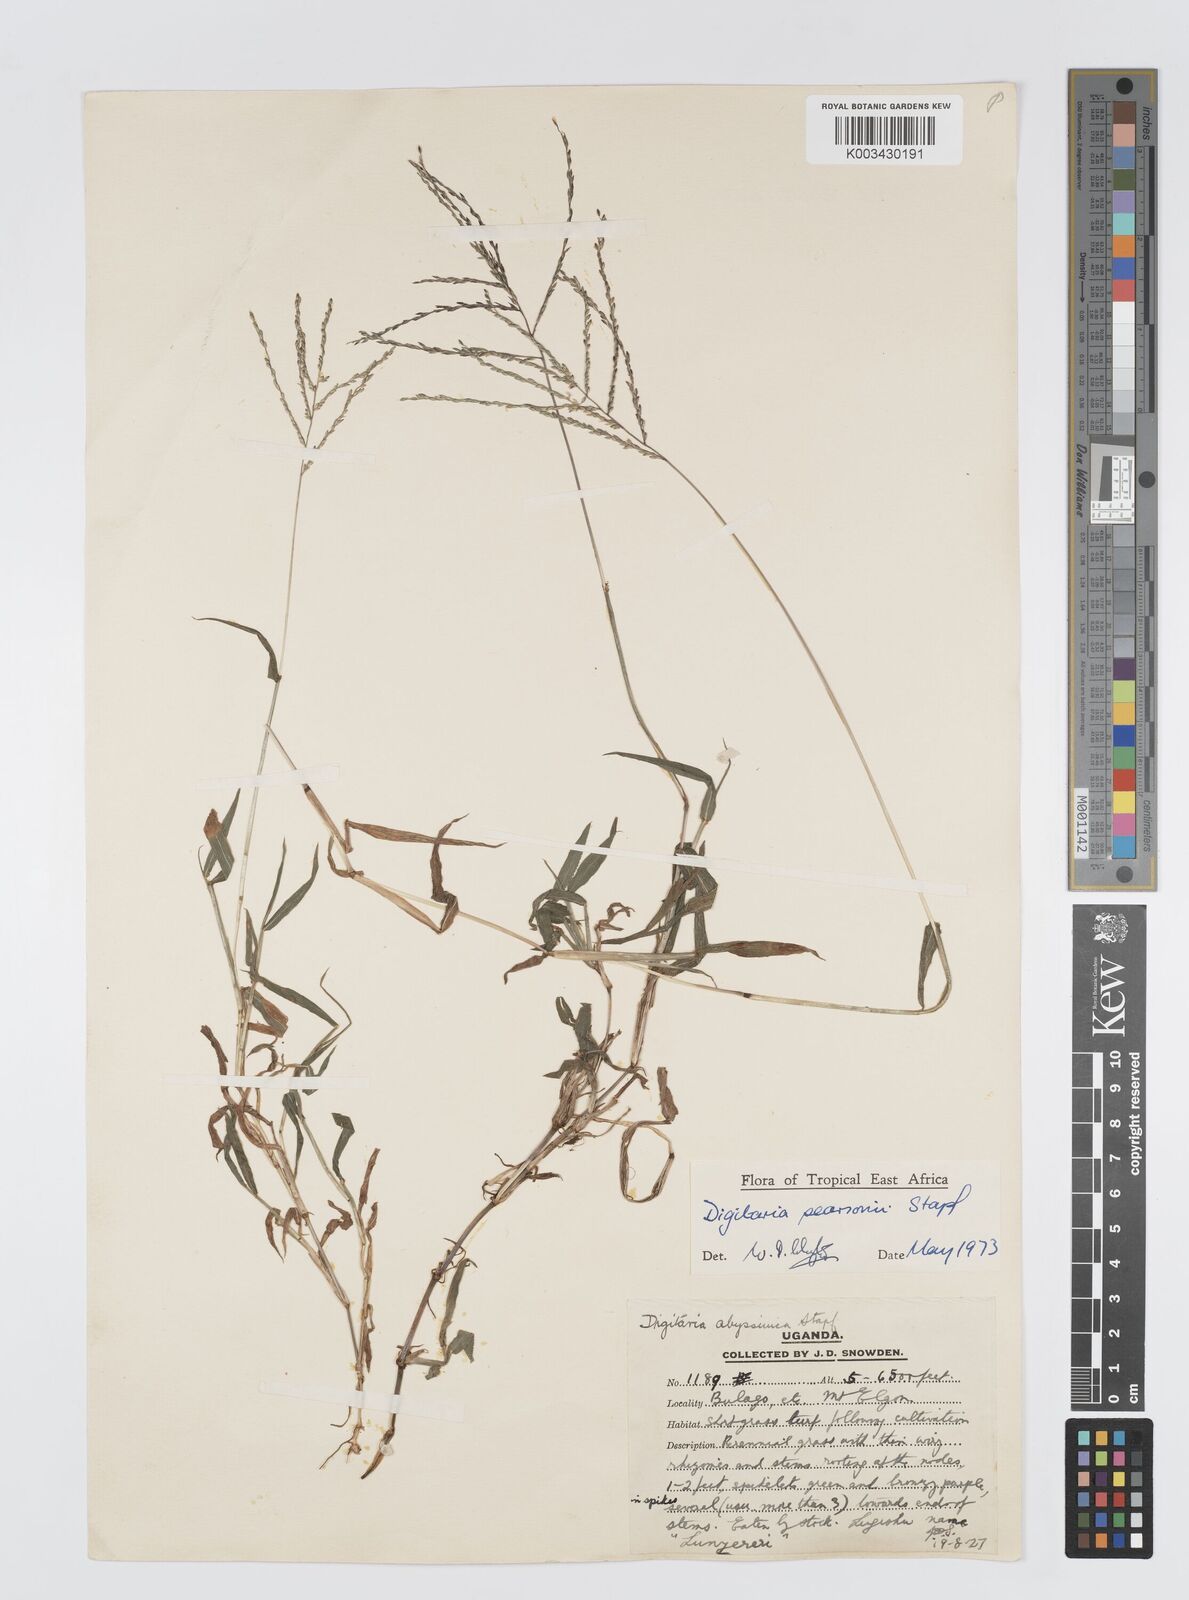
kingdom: Plantae
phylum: Tracheophyta
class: Liliopsida
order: Poales
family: Poaceae
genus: Digitaria
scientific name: Digitaria pearsonii
